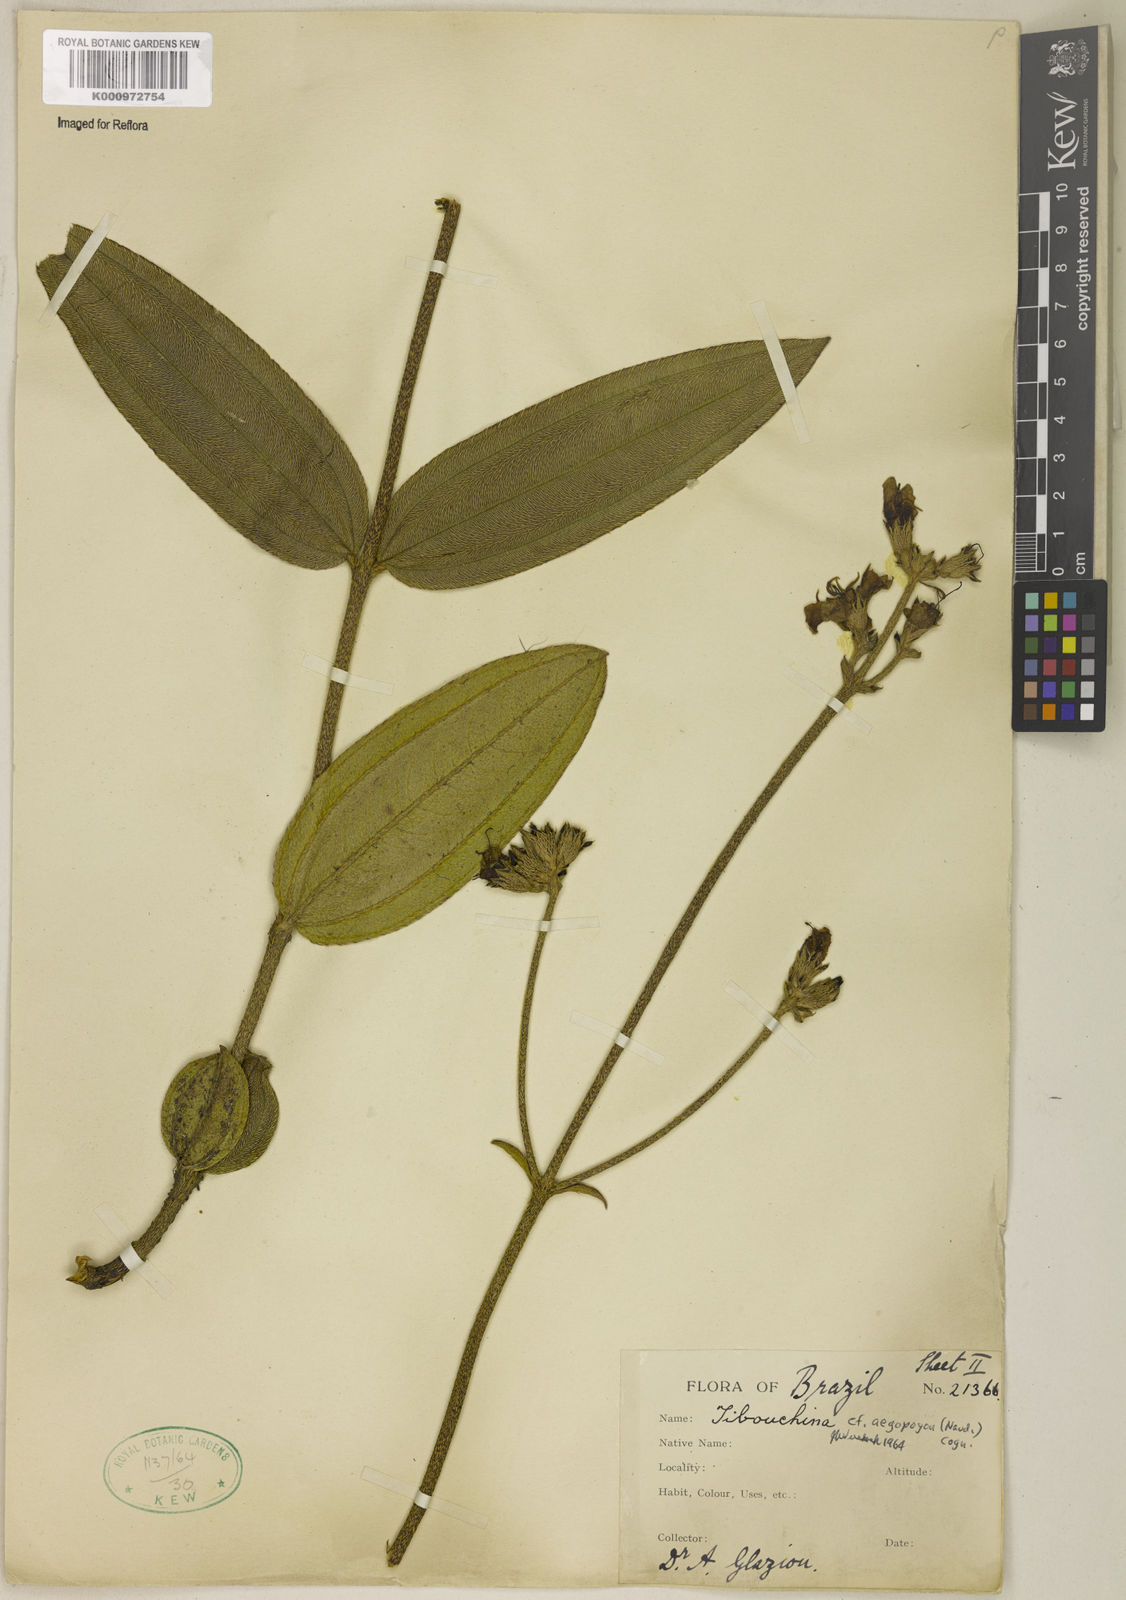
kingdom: Plantae
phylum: Tracheophyta
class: Magnoliopsida
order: Myrtales
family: Melastomataceae
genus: Pleroma
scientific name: Pleroma aegopogon
